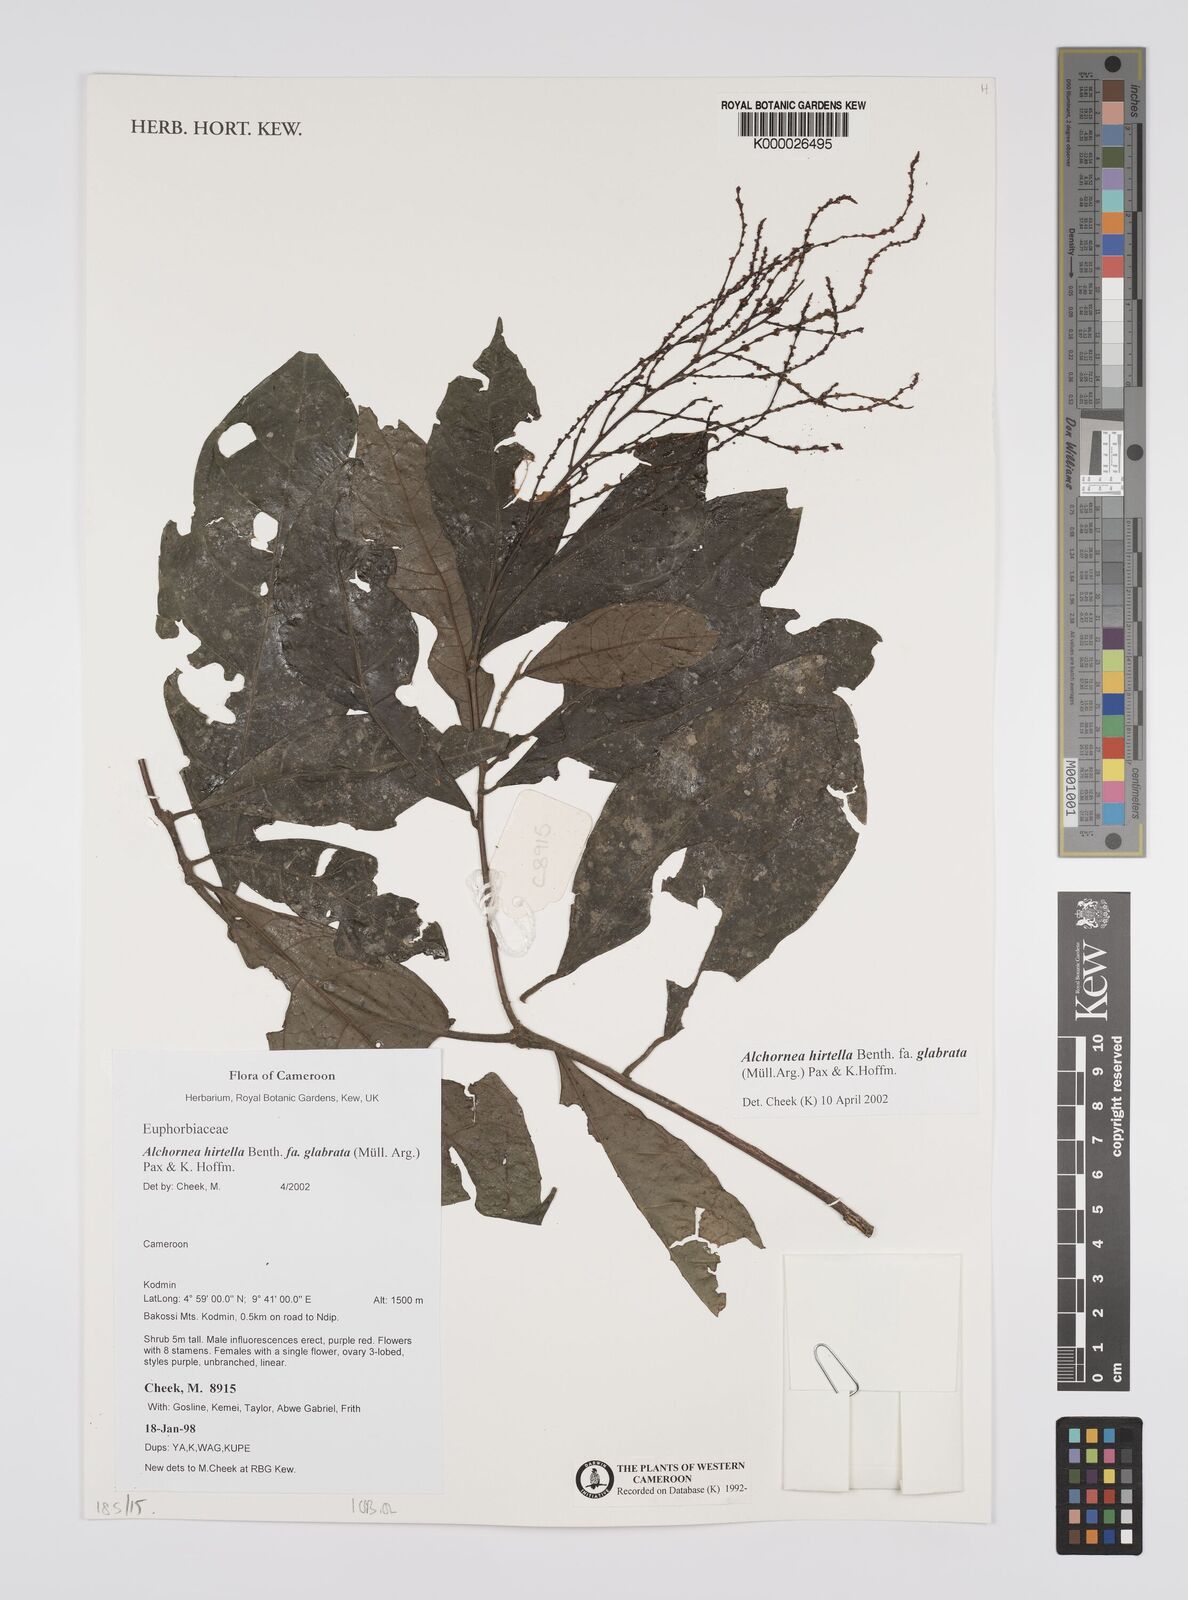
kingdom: Plantae
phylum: Tracheophyta
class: Magnoliopsida
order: Malpighiales
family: Euphorbiaceae
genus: Alchornea
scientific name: Alchornea hirtella
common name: Forest bead-string
